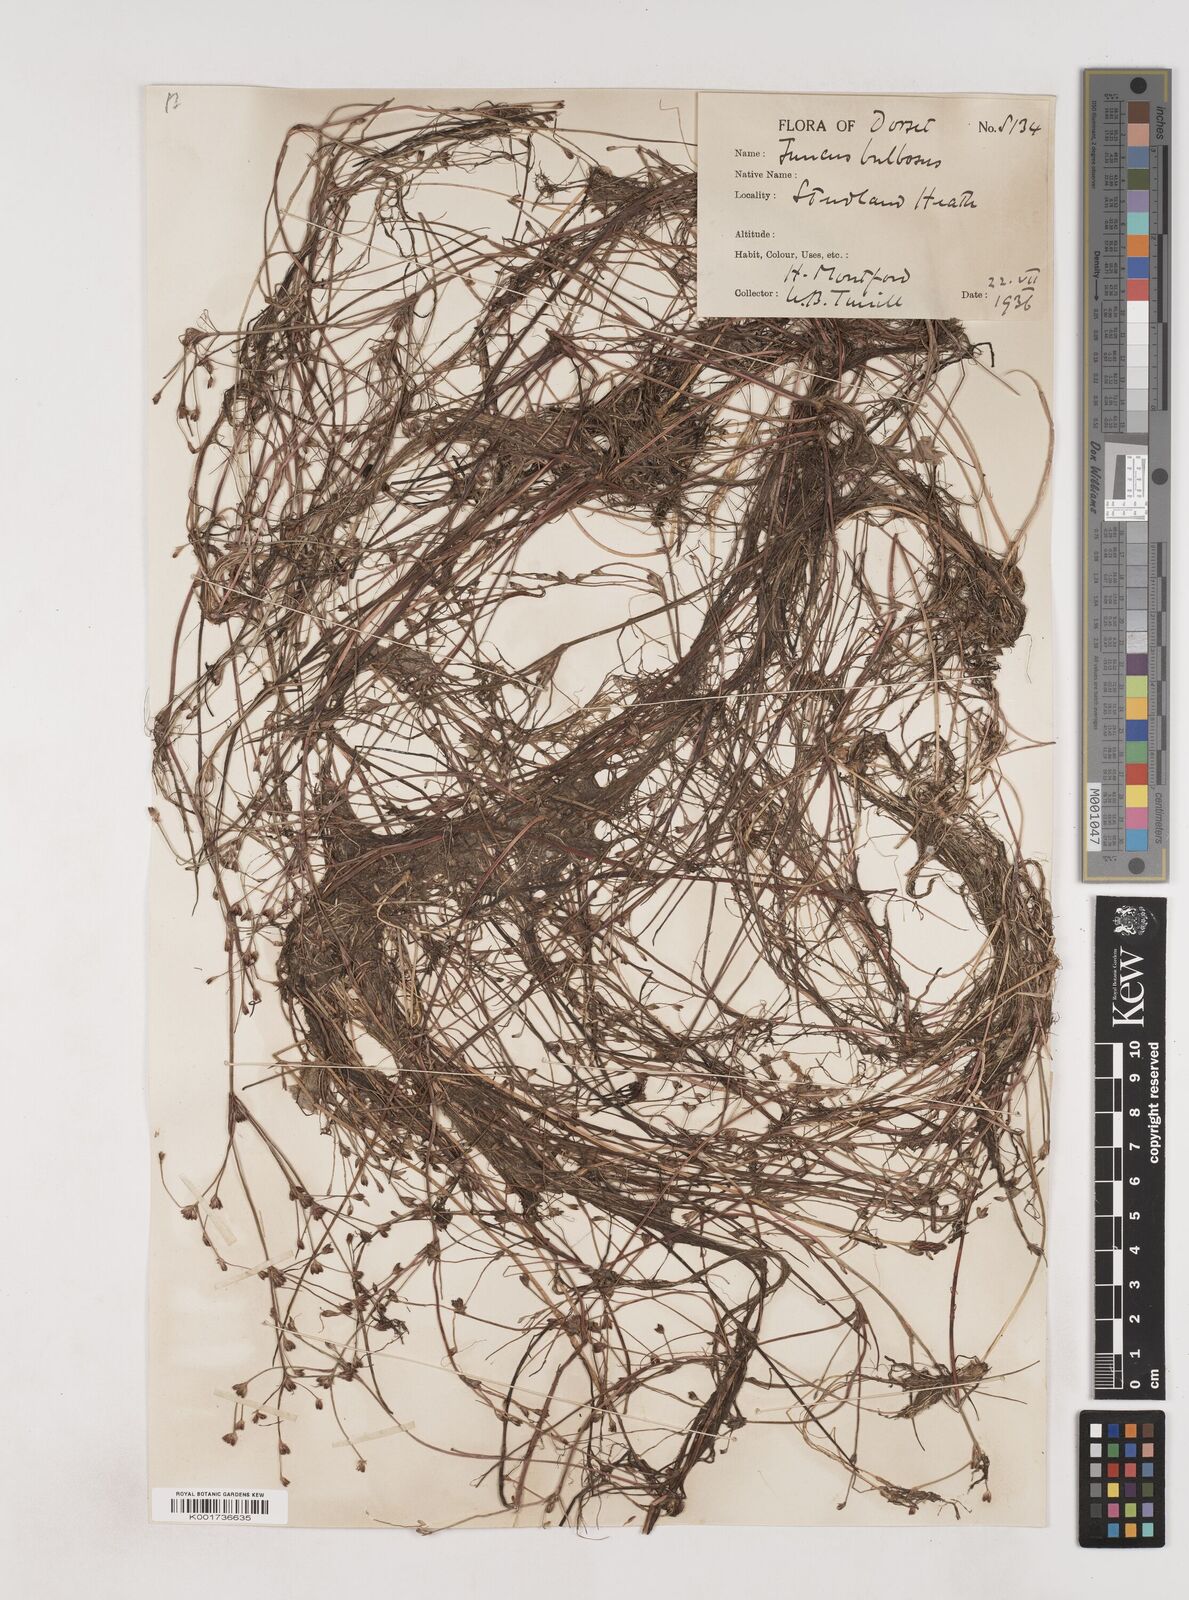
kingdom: Plantae
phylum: Tracheophyta
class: Liliopsida
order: Poales
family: Juncaceae
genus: Juncus
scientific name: Juncus bulbosus
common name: Bulbous rush
